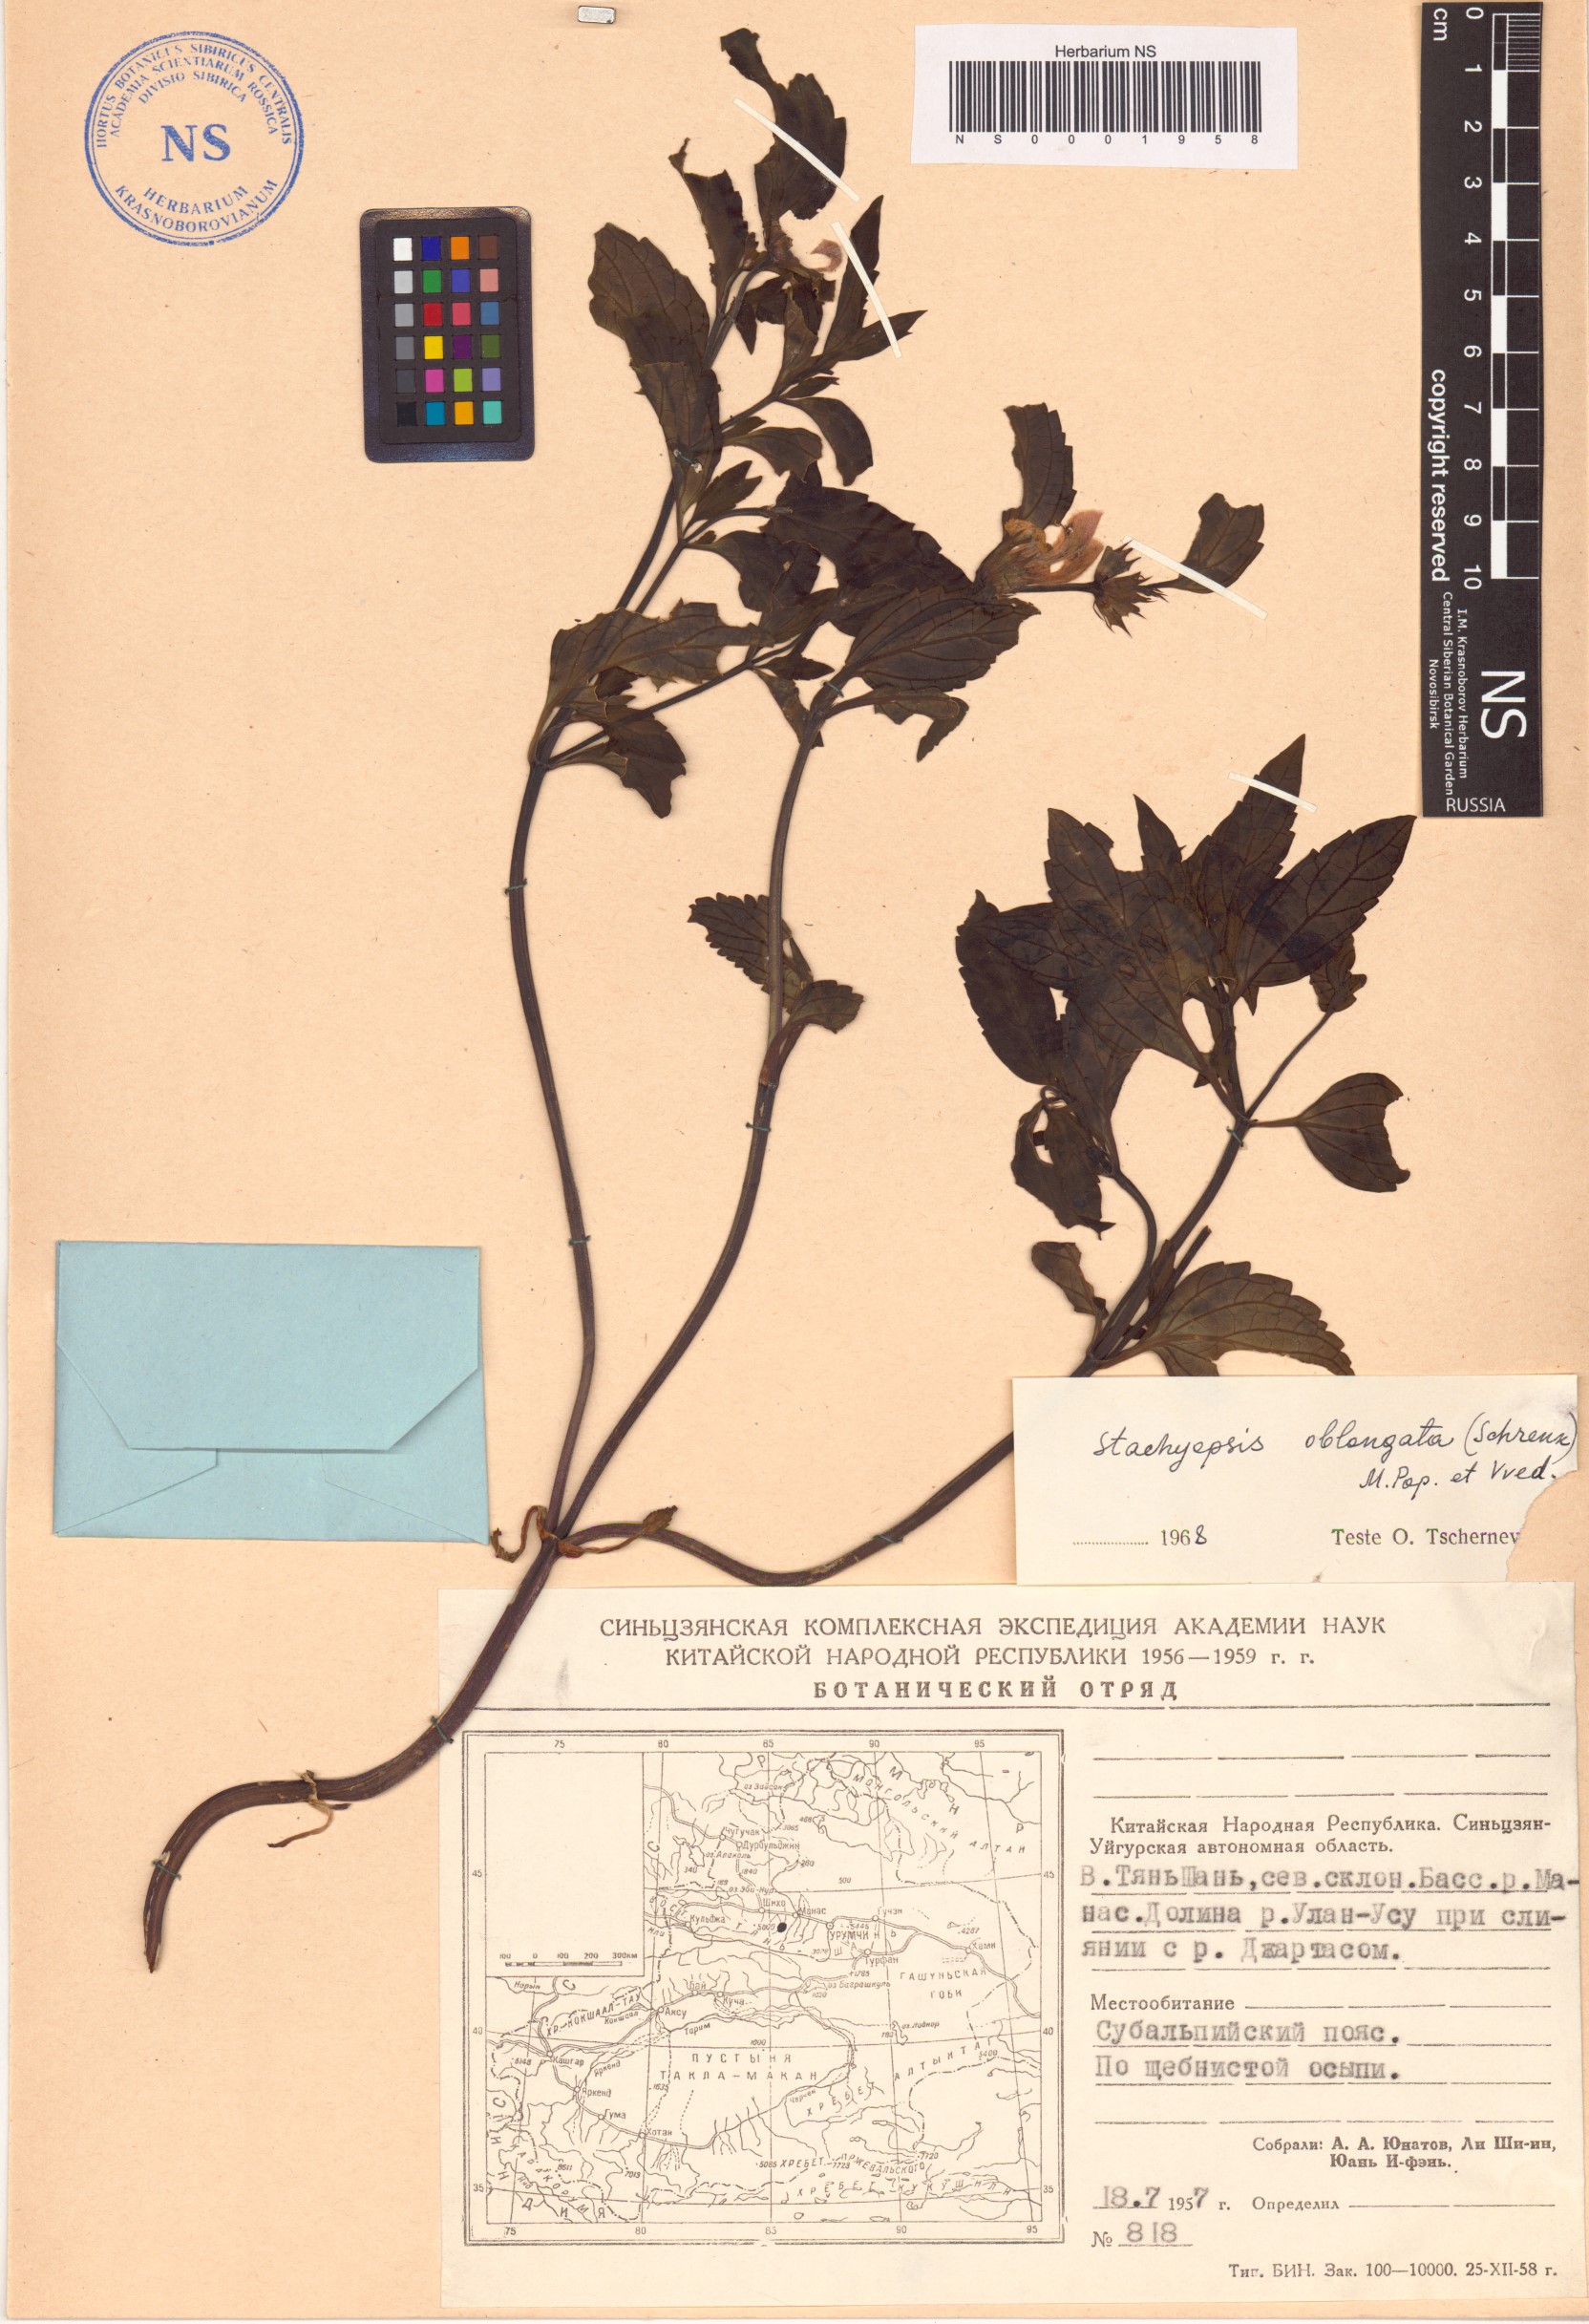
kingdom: Plantae
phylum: Tracheophyta
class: Magnoliopsida
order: Lamiales
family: Lamiaceae
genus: Eriophyton
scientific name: Eriophyton oblongatum
